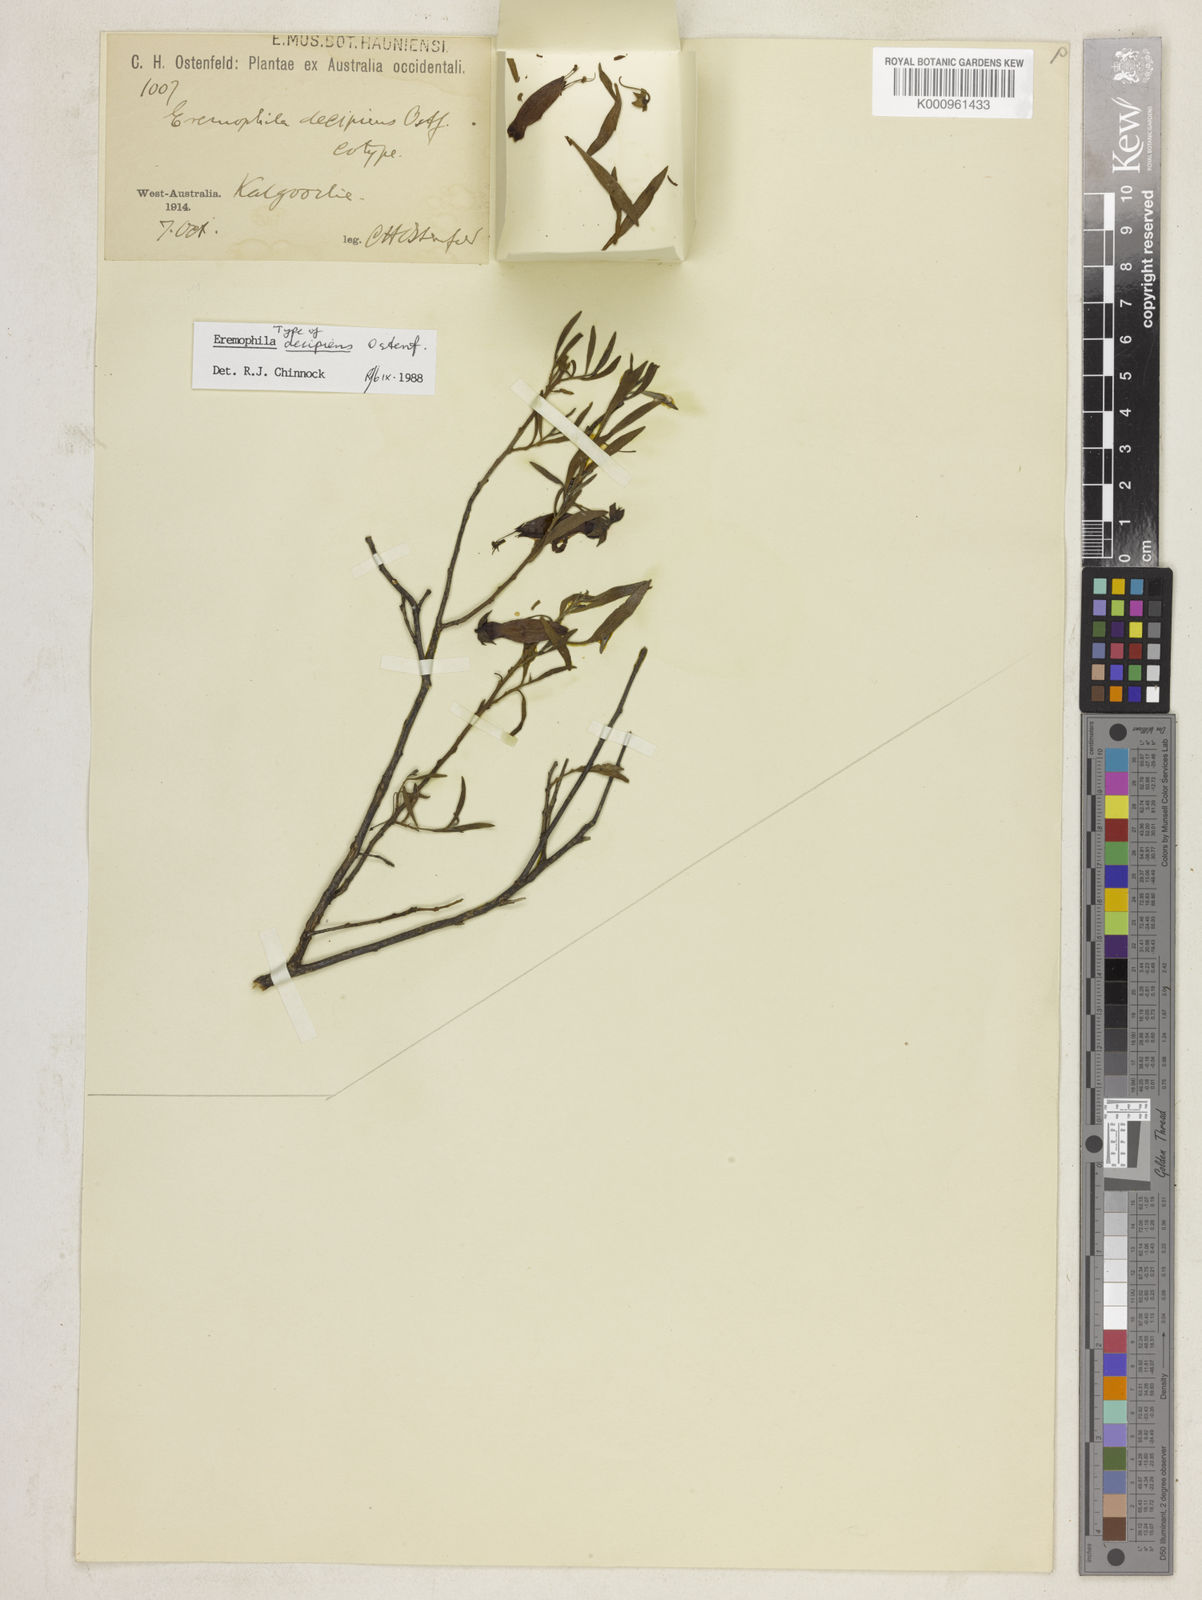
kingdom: Plantae
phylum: Tracheophyta
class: Magnoliopsida
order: Lamiales
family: Scrophulariaceae
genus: Eremophila
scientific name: Eremophila decipiens
